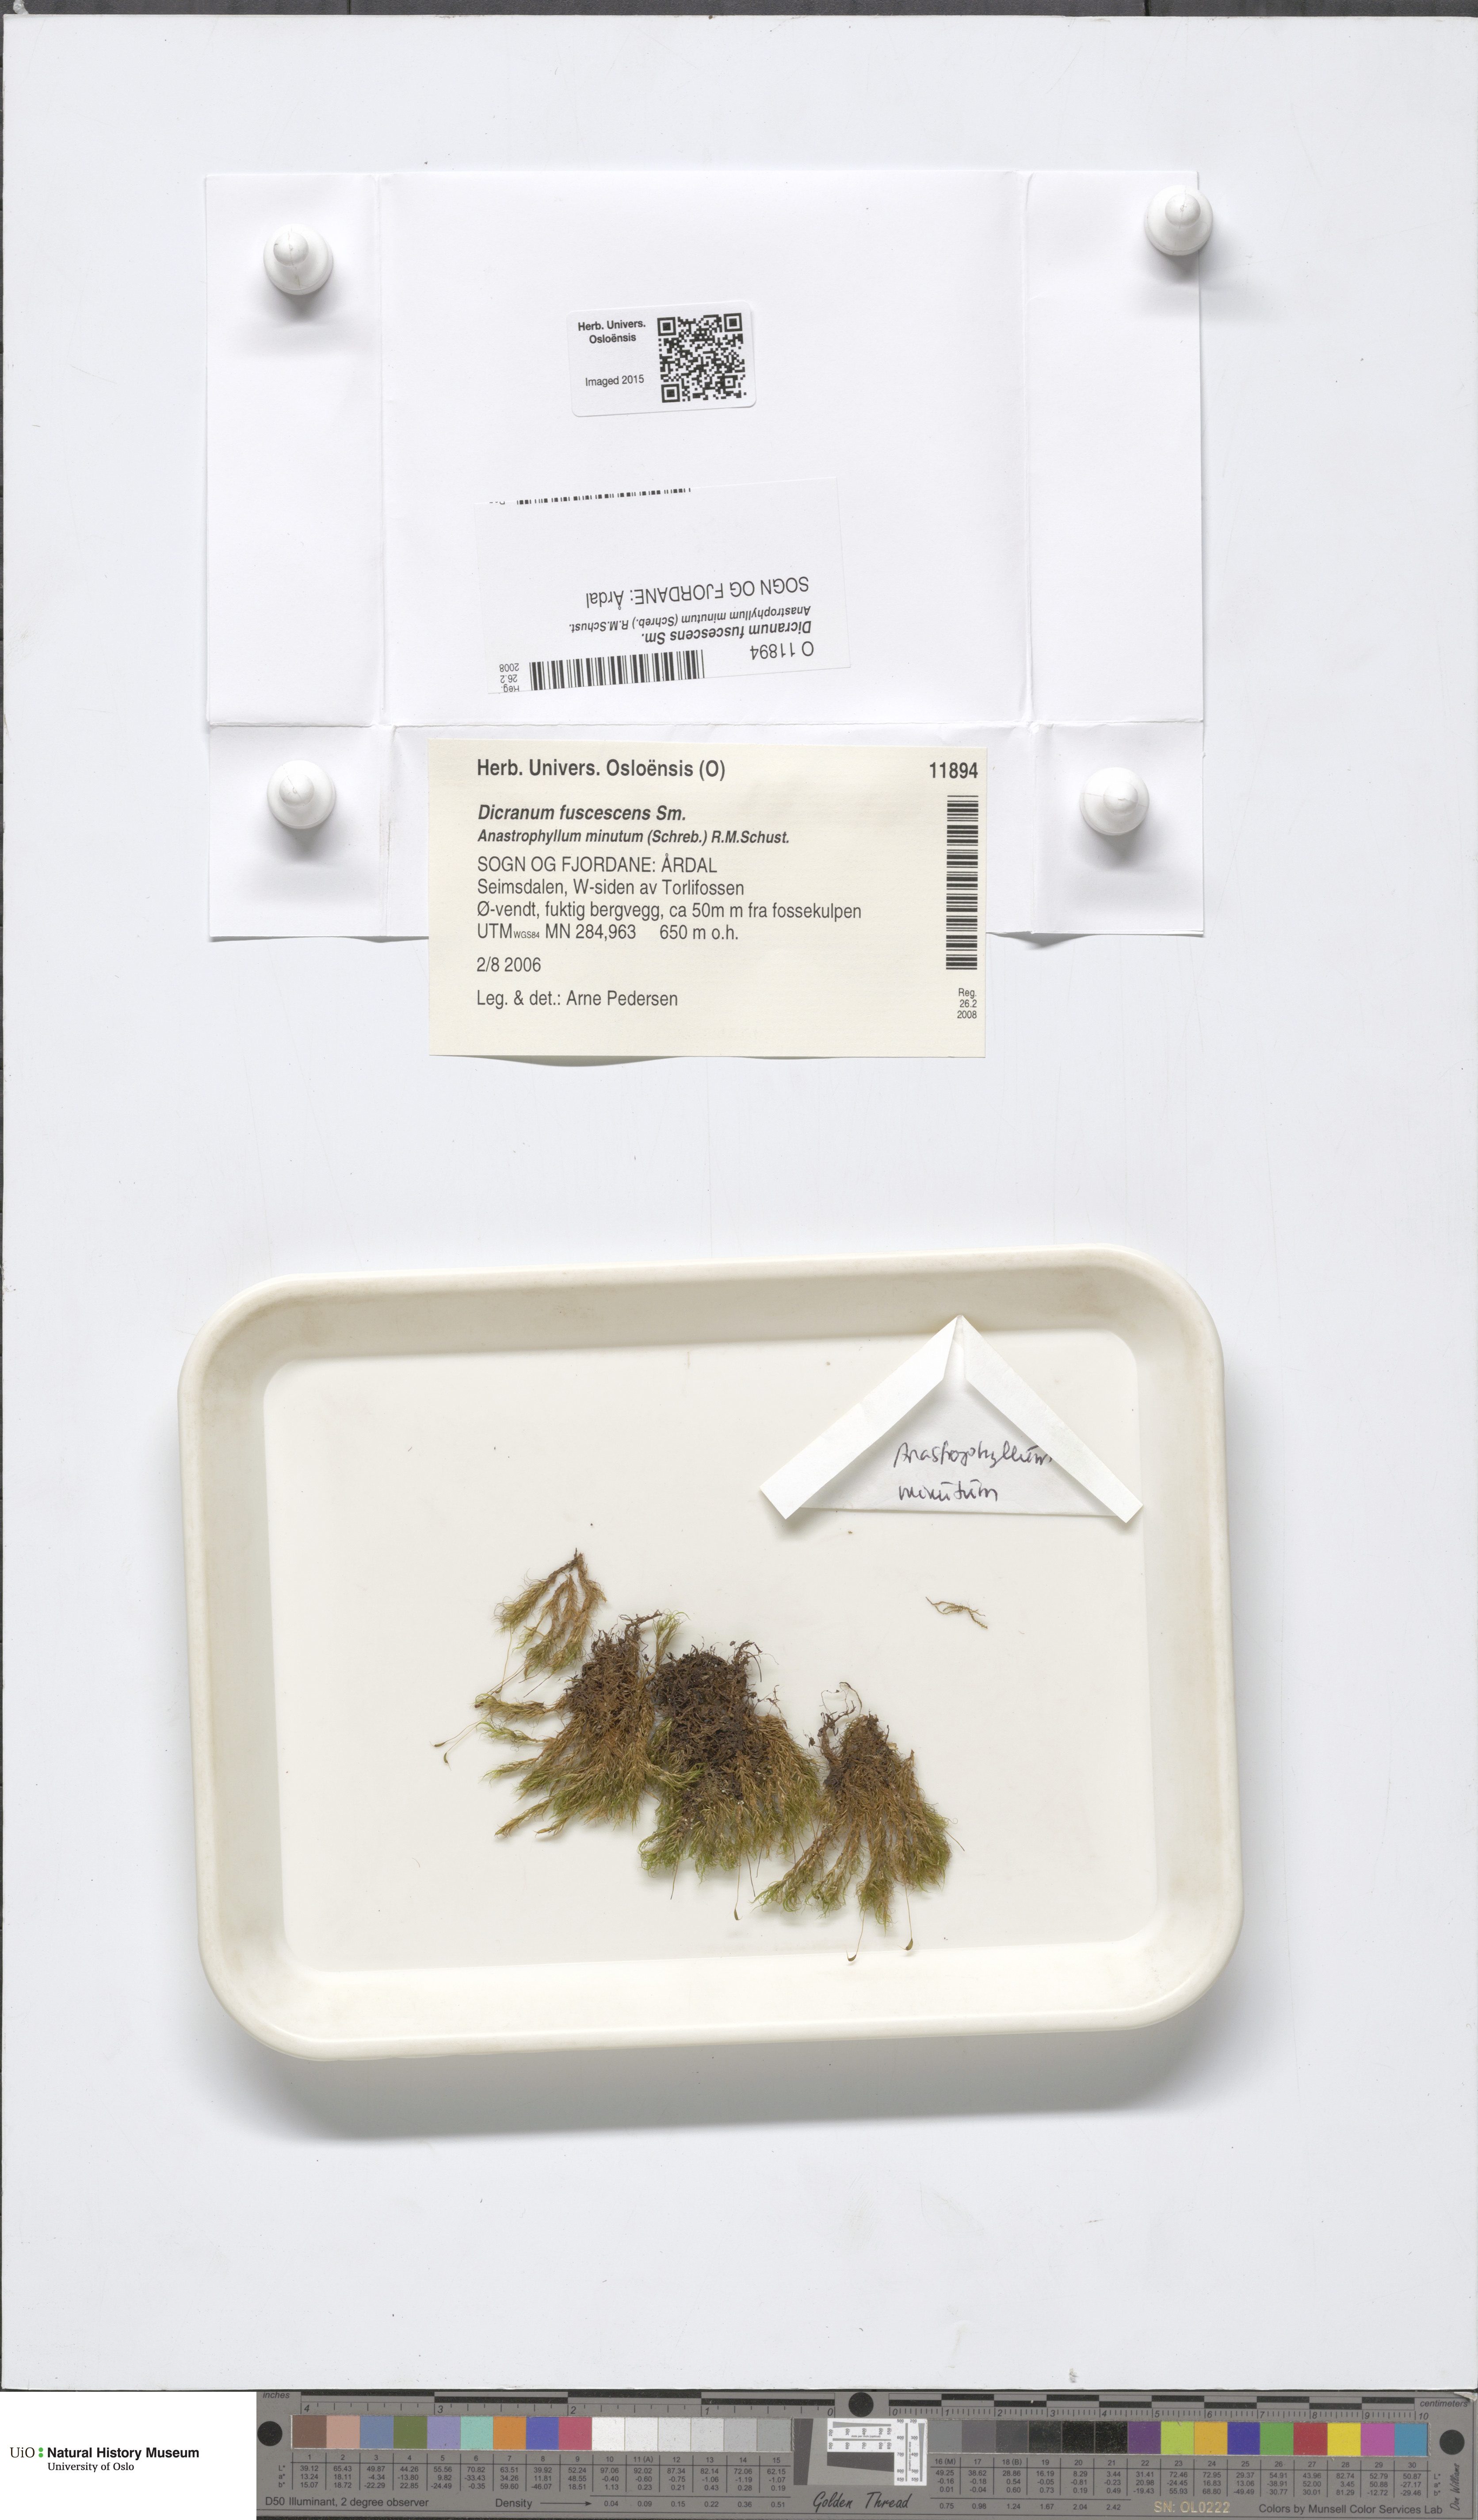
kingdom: Plantae
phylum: Bryophyta
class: Bryopsida
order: Dicranales
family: Dicranaceae
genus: Dicranum
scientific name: Dicranum fuscescens
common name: Curly heron's-bill moss
